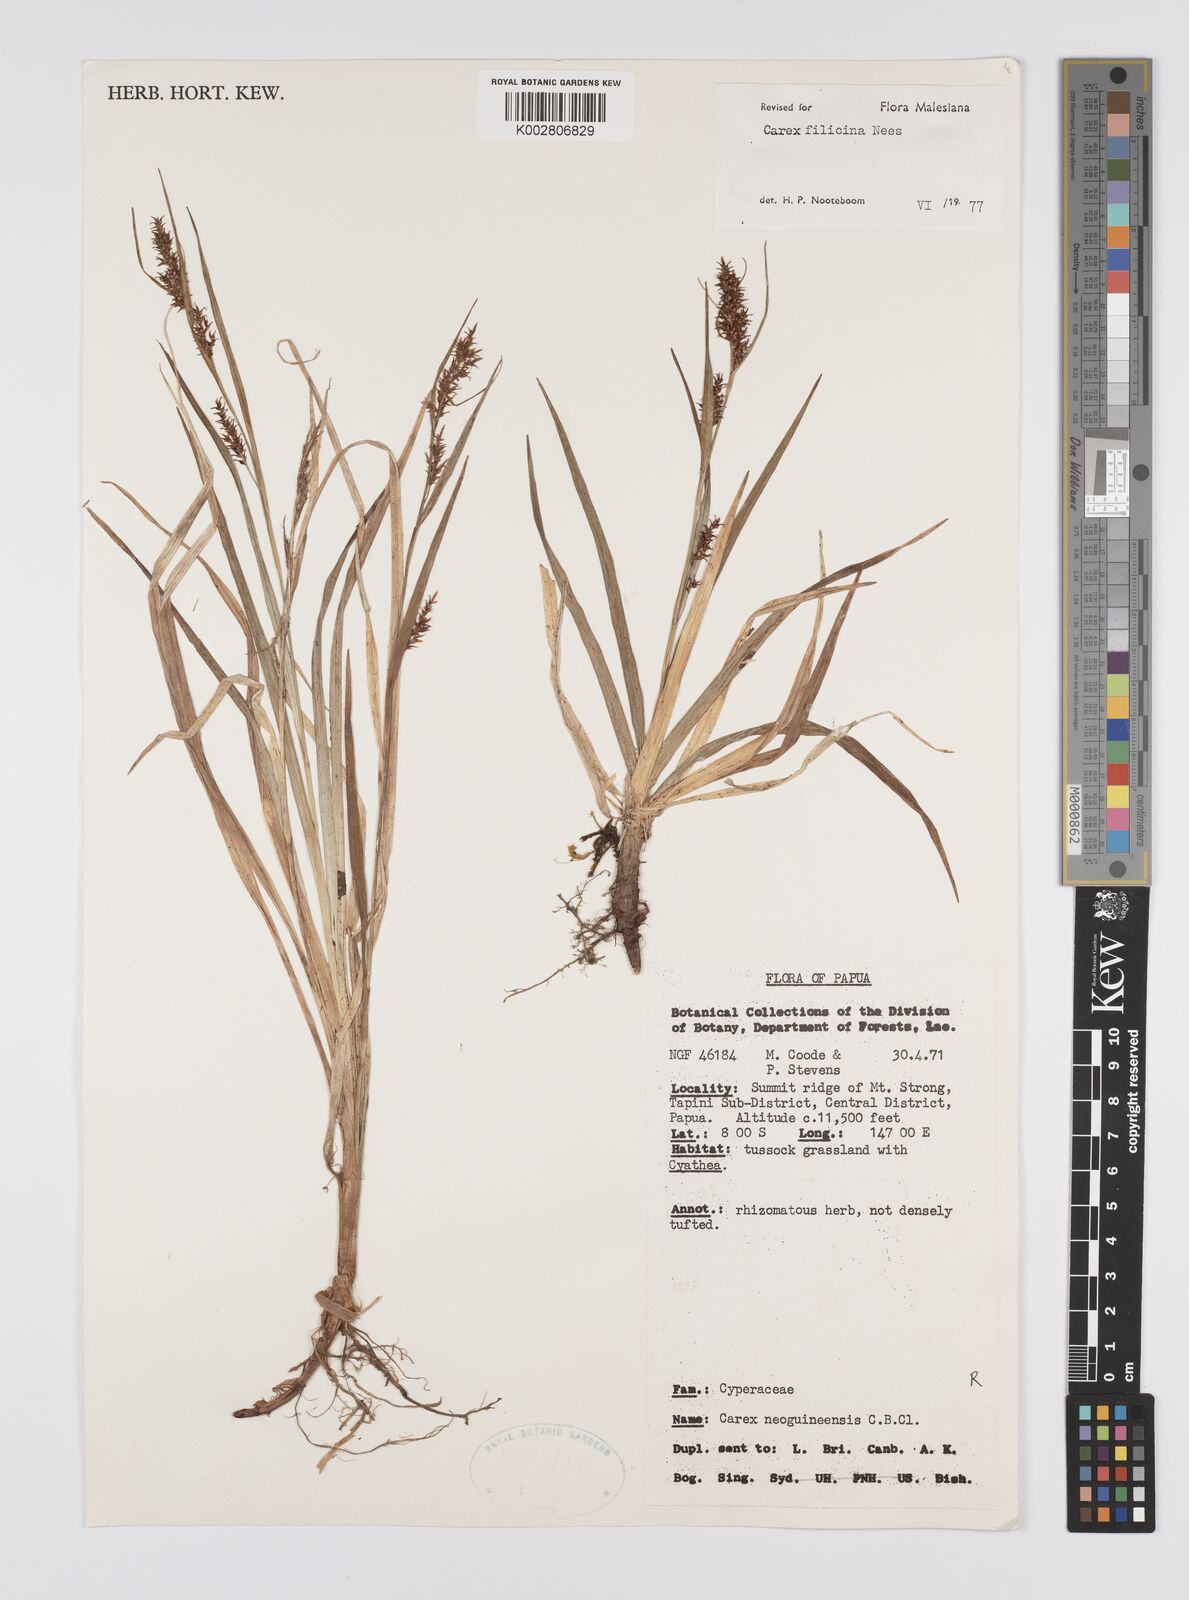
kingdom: Plantae
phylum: Tracheophyta
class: Liliopsida
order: Poales
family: Cyperaceae
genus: Carex
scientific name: Carex filicina
